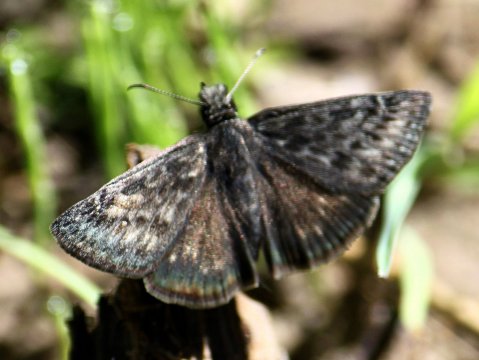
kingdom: Animalia
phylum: Arthropoda
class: Insecta
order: Lepidoptera
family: Hesperiidae
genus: Gesta
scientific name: Gesta
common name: Persius Duskywing
